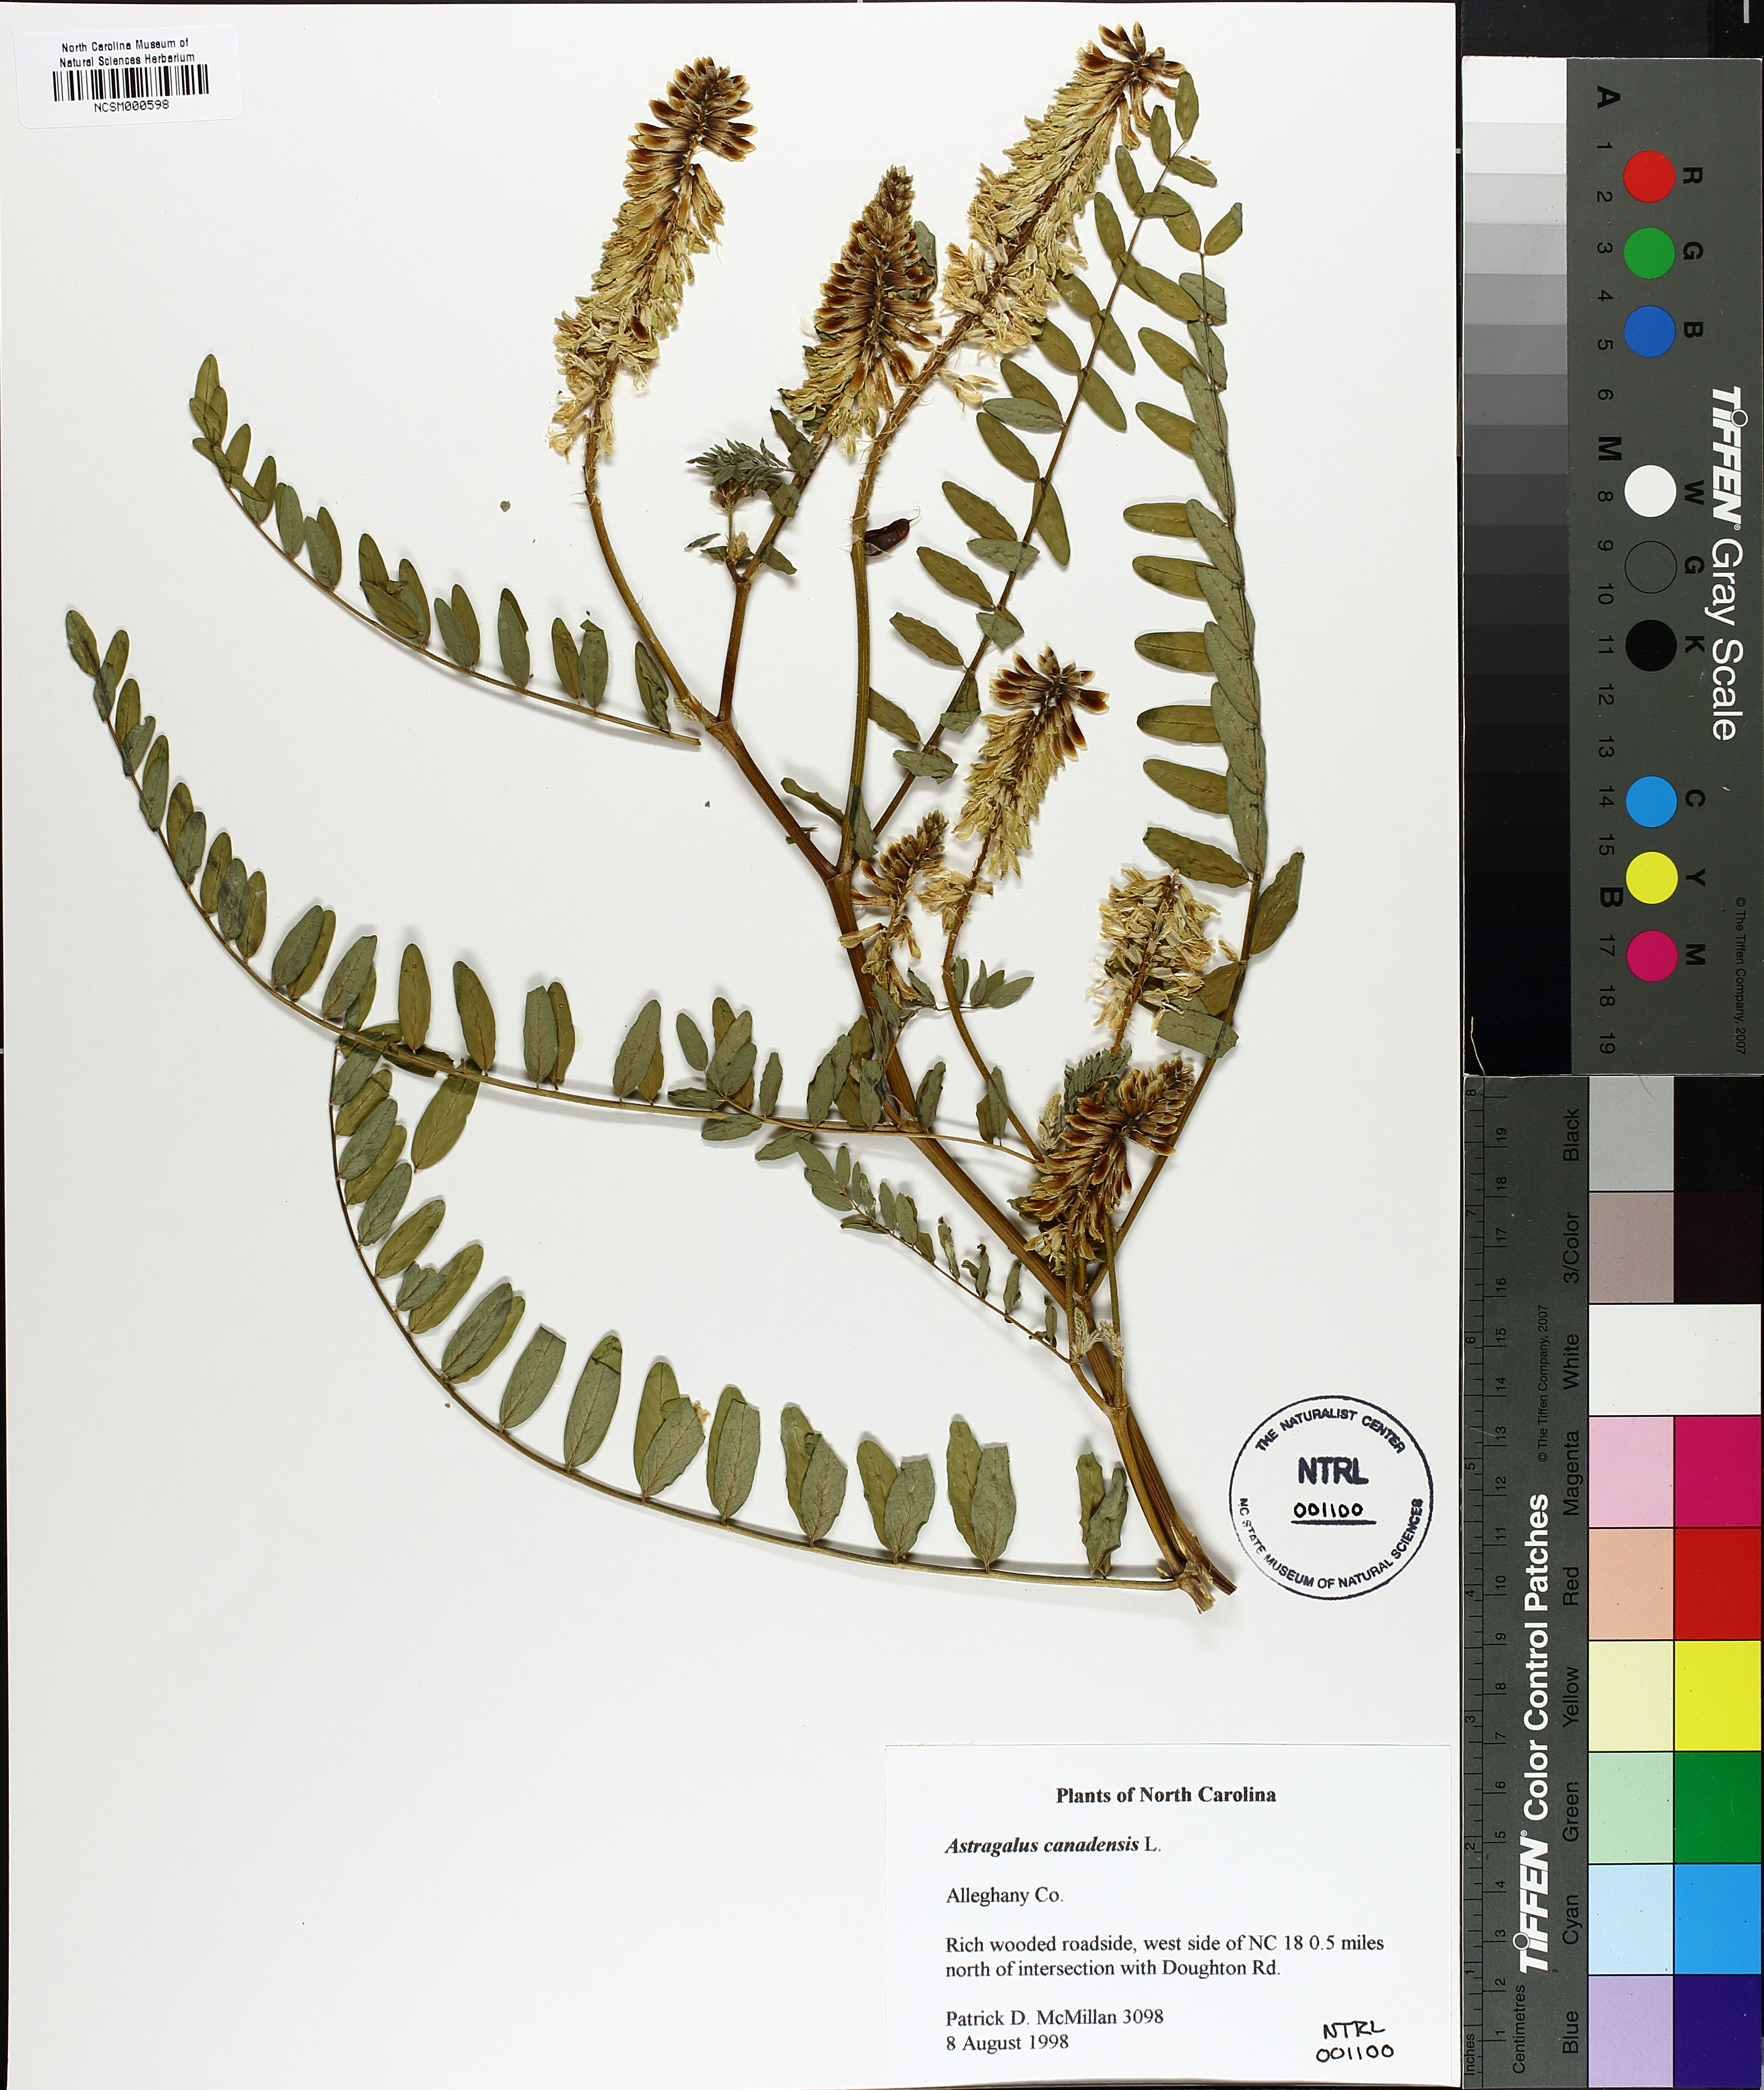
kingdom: Plantae
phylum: Tracheophyta
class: Magnoliopsida
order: Fabales
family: Fabaceae
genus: Astragalus
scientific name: Astragalus canadensis
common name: Canada milk-vetch
